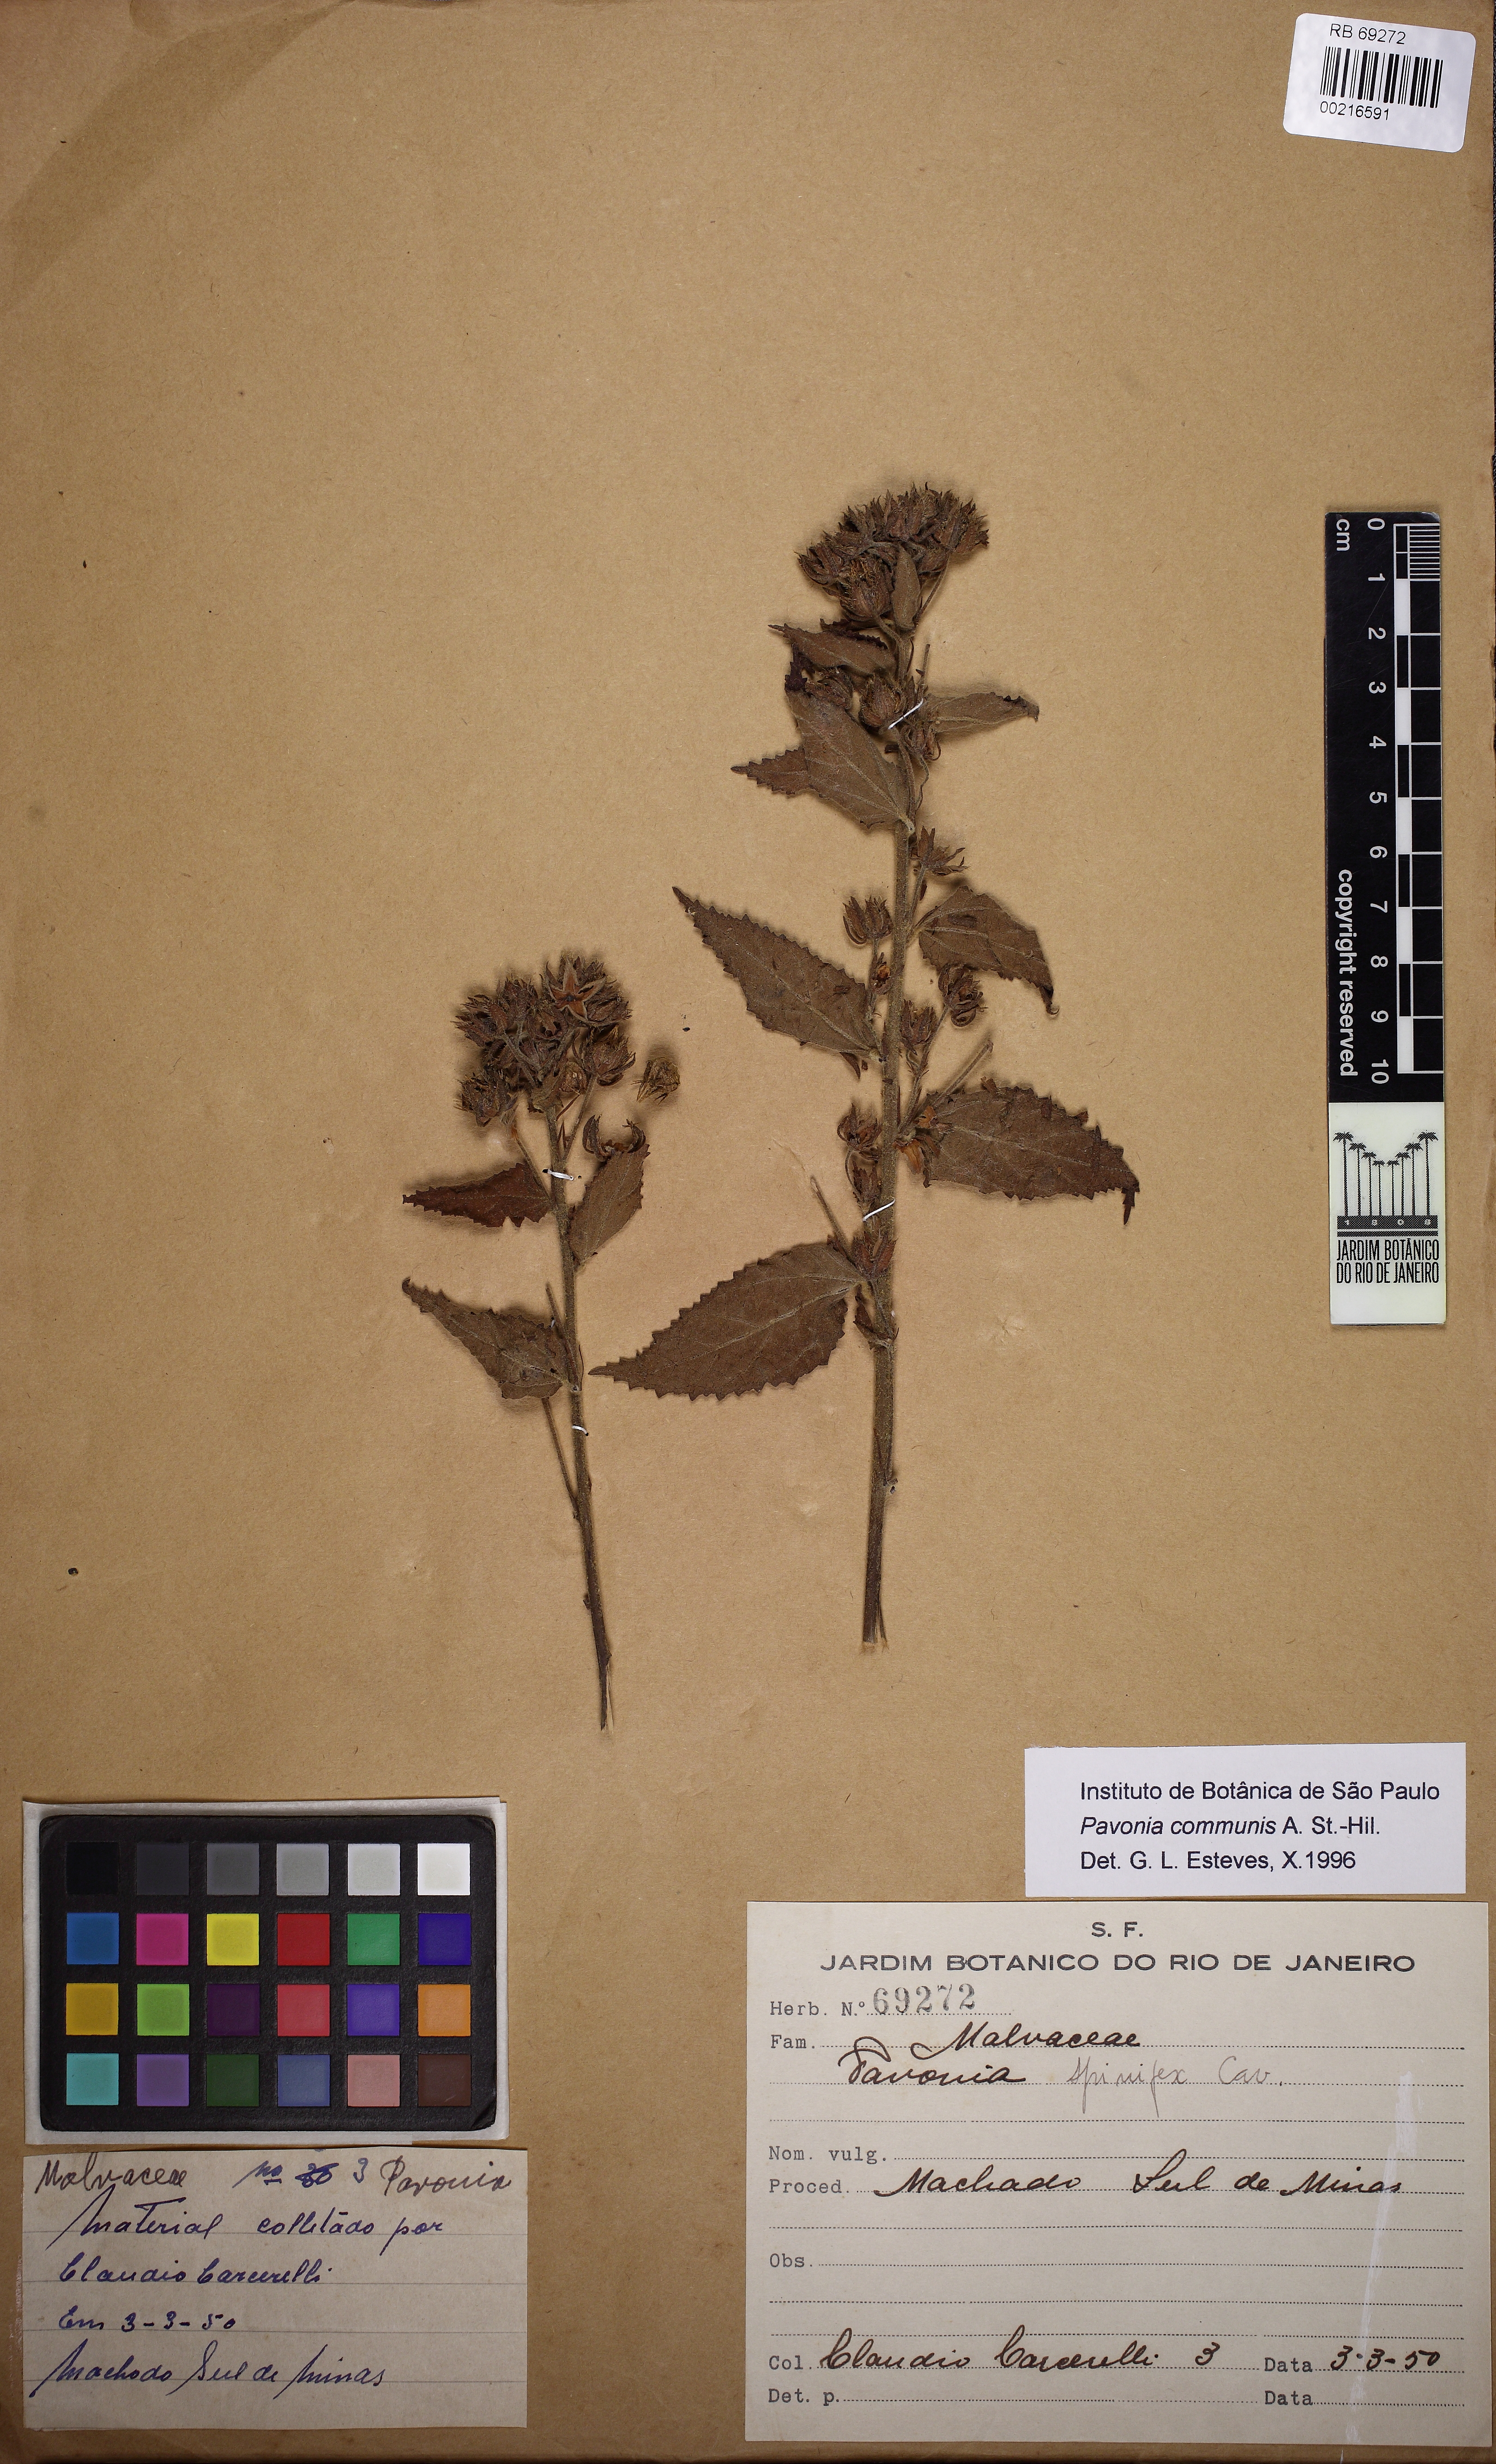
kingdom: Plantae
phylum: Tracheophyta
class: Magnoliopsida
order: Malvales
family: Malvaceae
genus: Pavonia
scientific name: Pavonia spinifex
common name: Ginger bush
